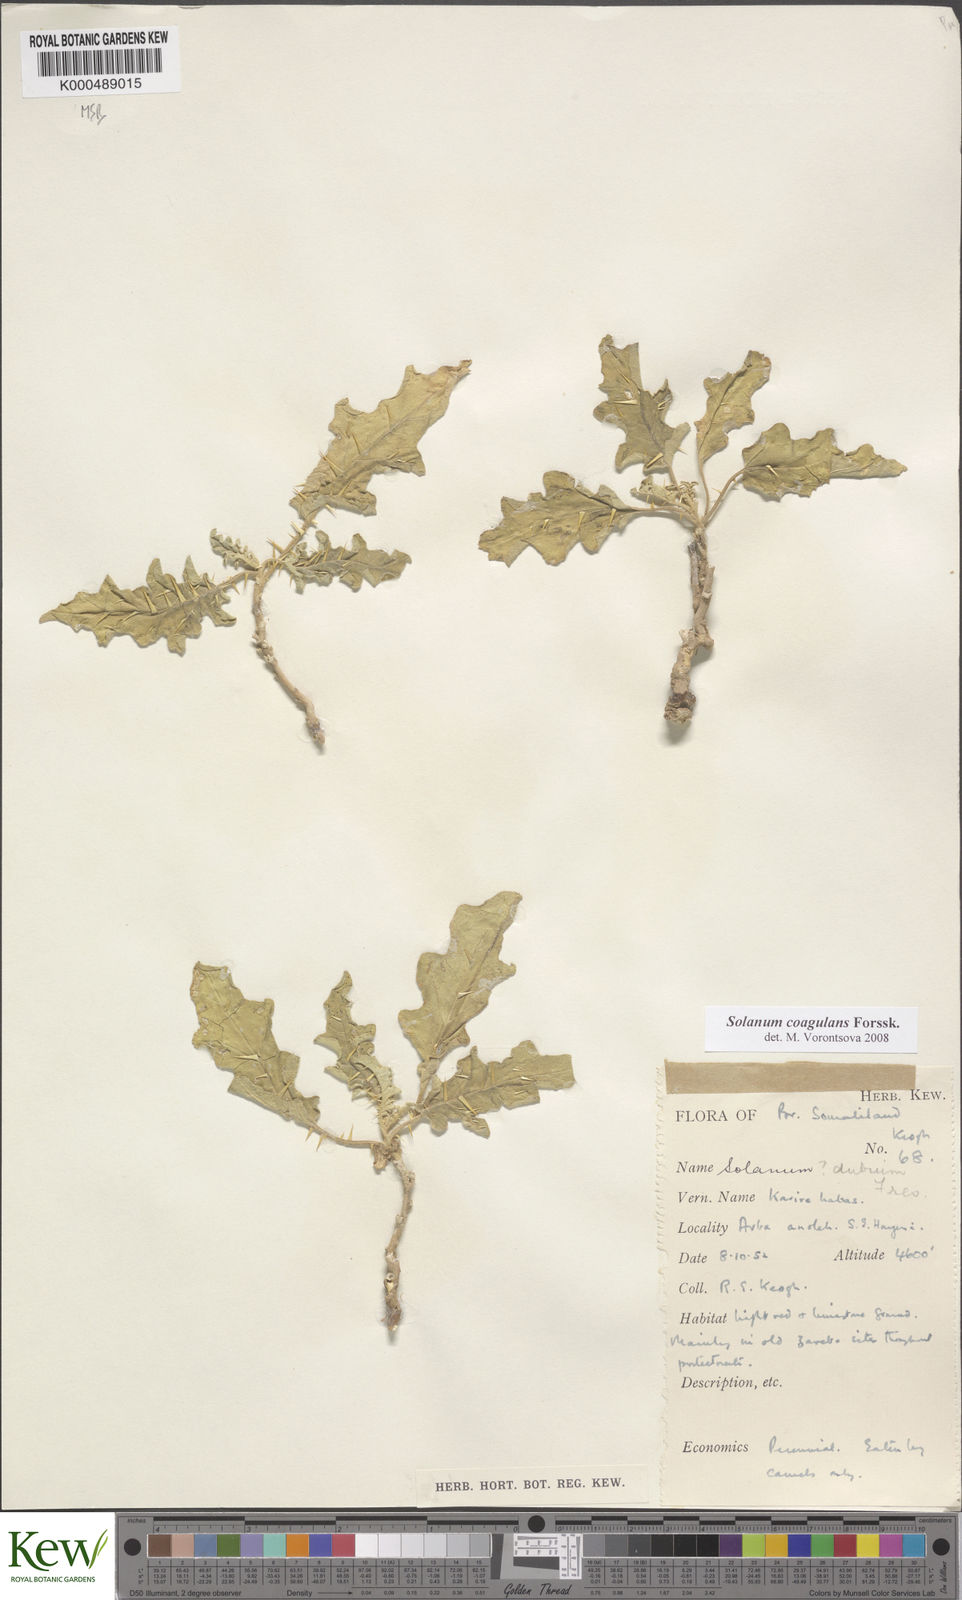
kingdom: Plantae
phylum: Tracheophyta
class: Magnoliopsida
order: Solanales
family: Solanaceae
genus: Solanum
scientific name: Solanum coagulans
